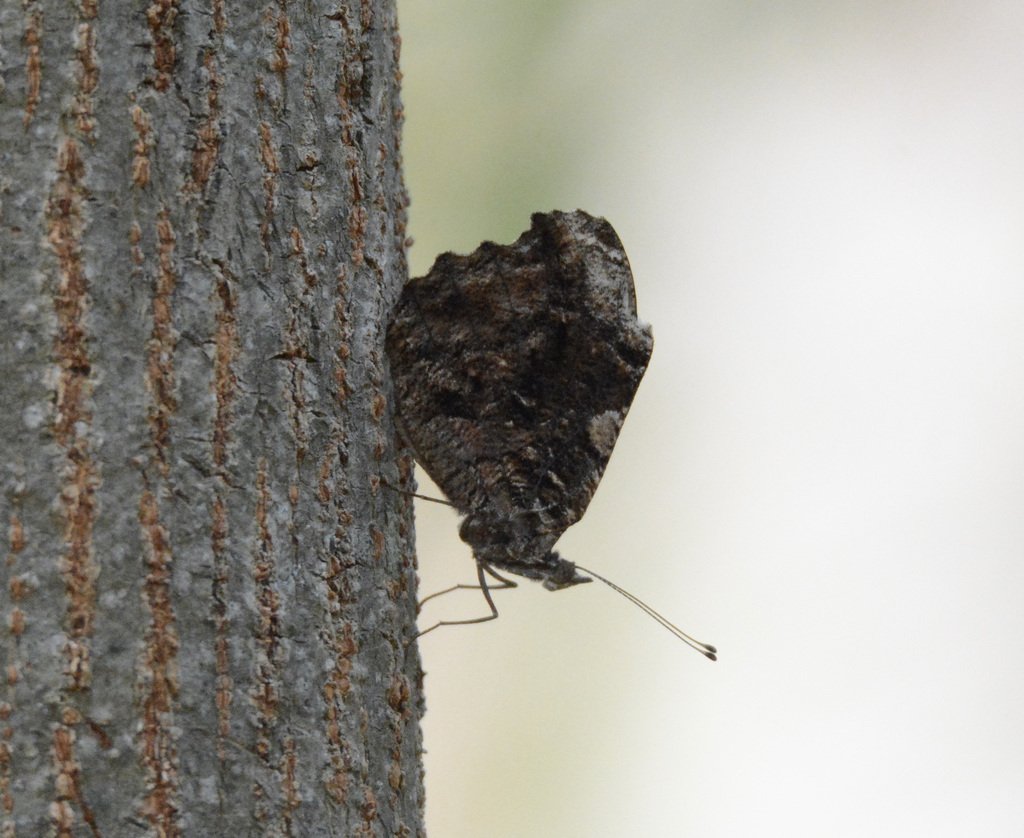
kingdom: Animalia
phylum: Arthropoda
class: Insecta
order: Lepidoptera
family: Nymphalidae
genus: Myscelia
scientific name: Myscelia ethusa
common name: Mexican Bluewing
